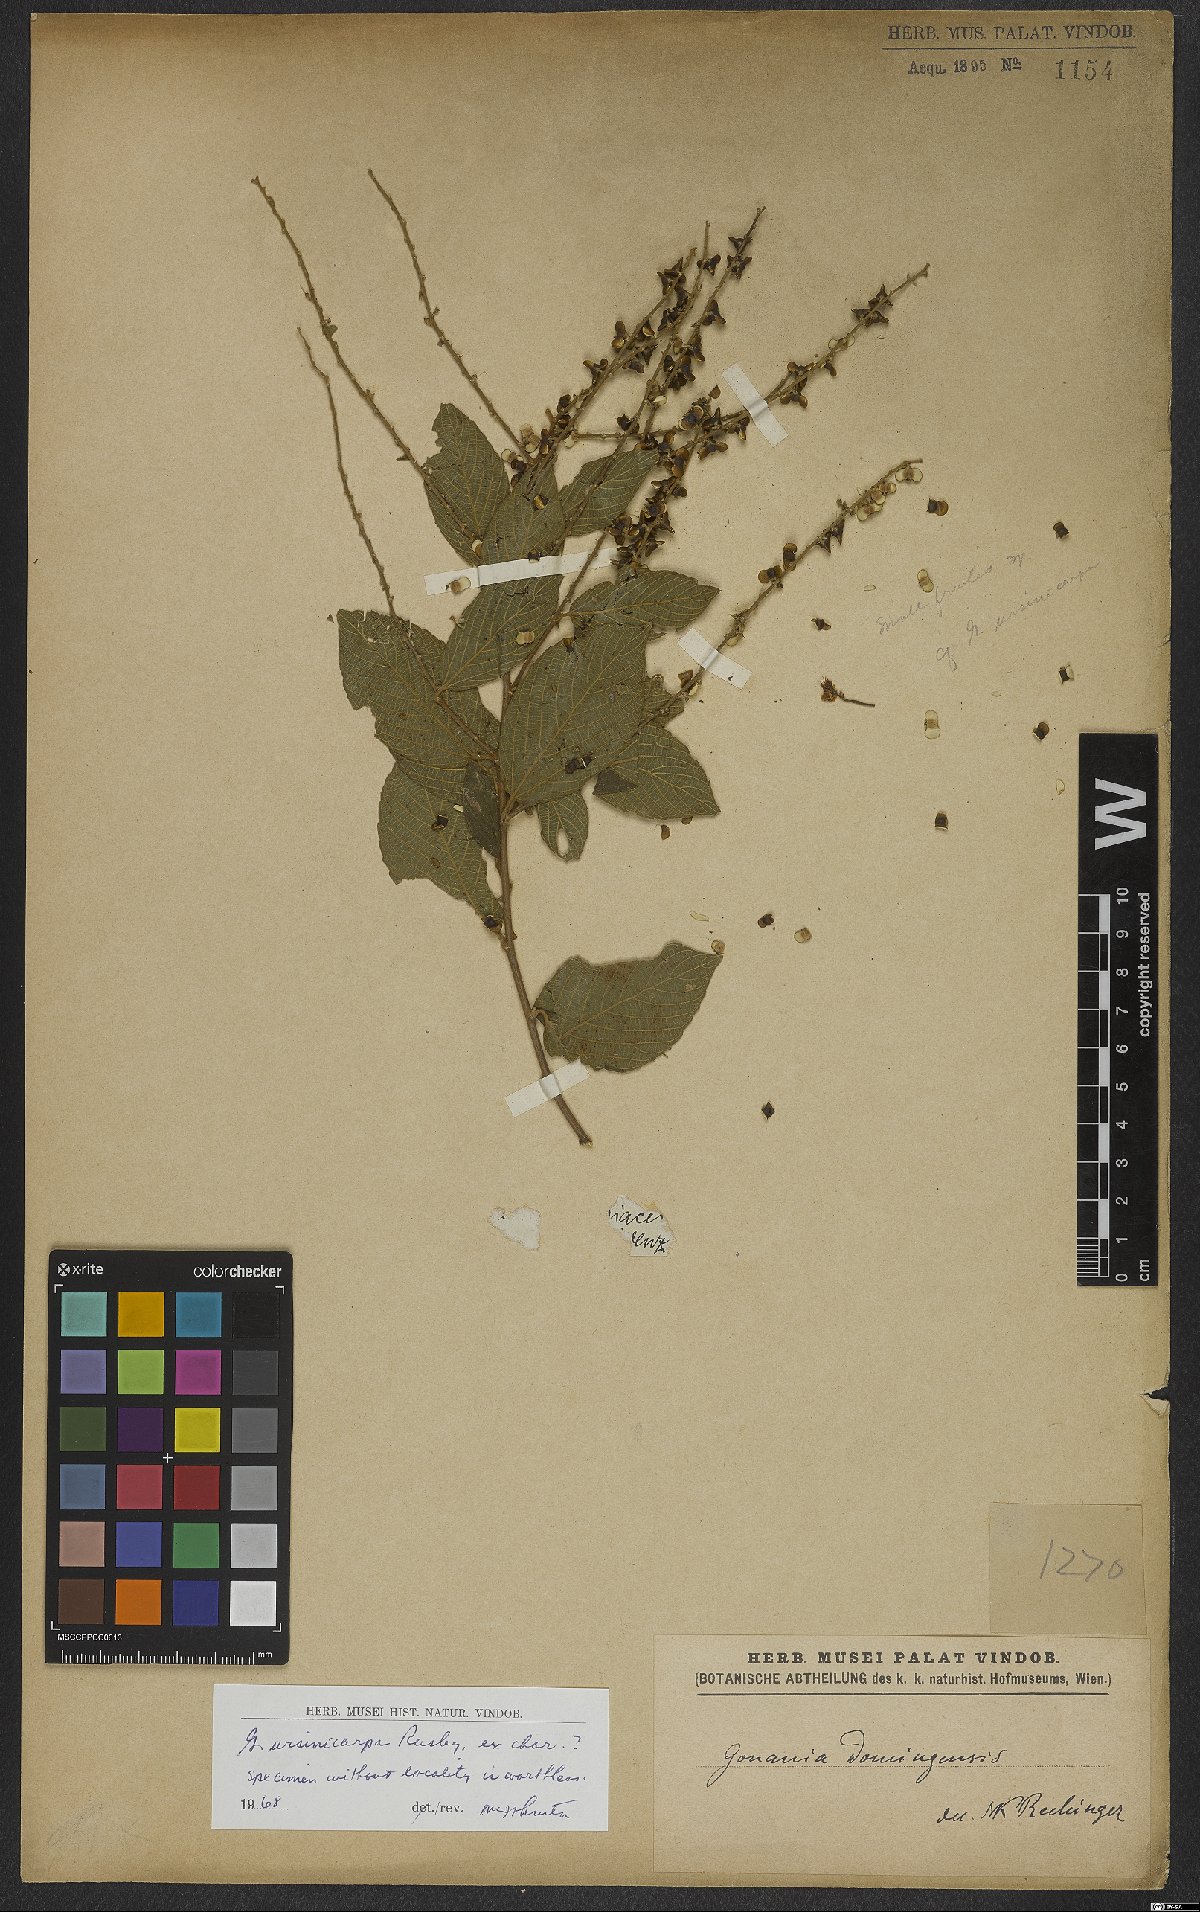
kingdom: Plantae
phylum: Tracheophyta
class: Magnoliopsida
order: Rosales
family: Rhamnaceae
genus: Gouania
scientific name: Gouania polygama
